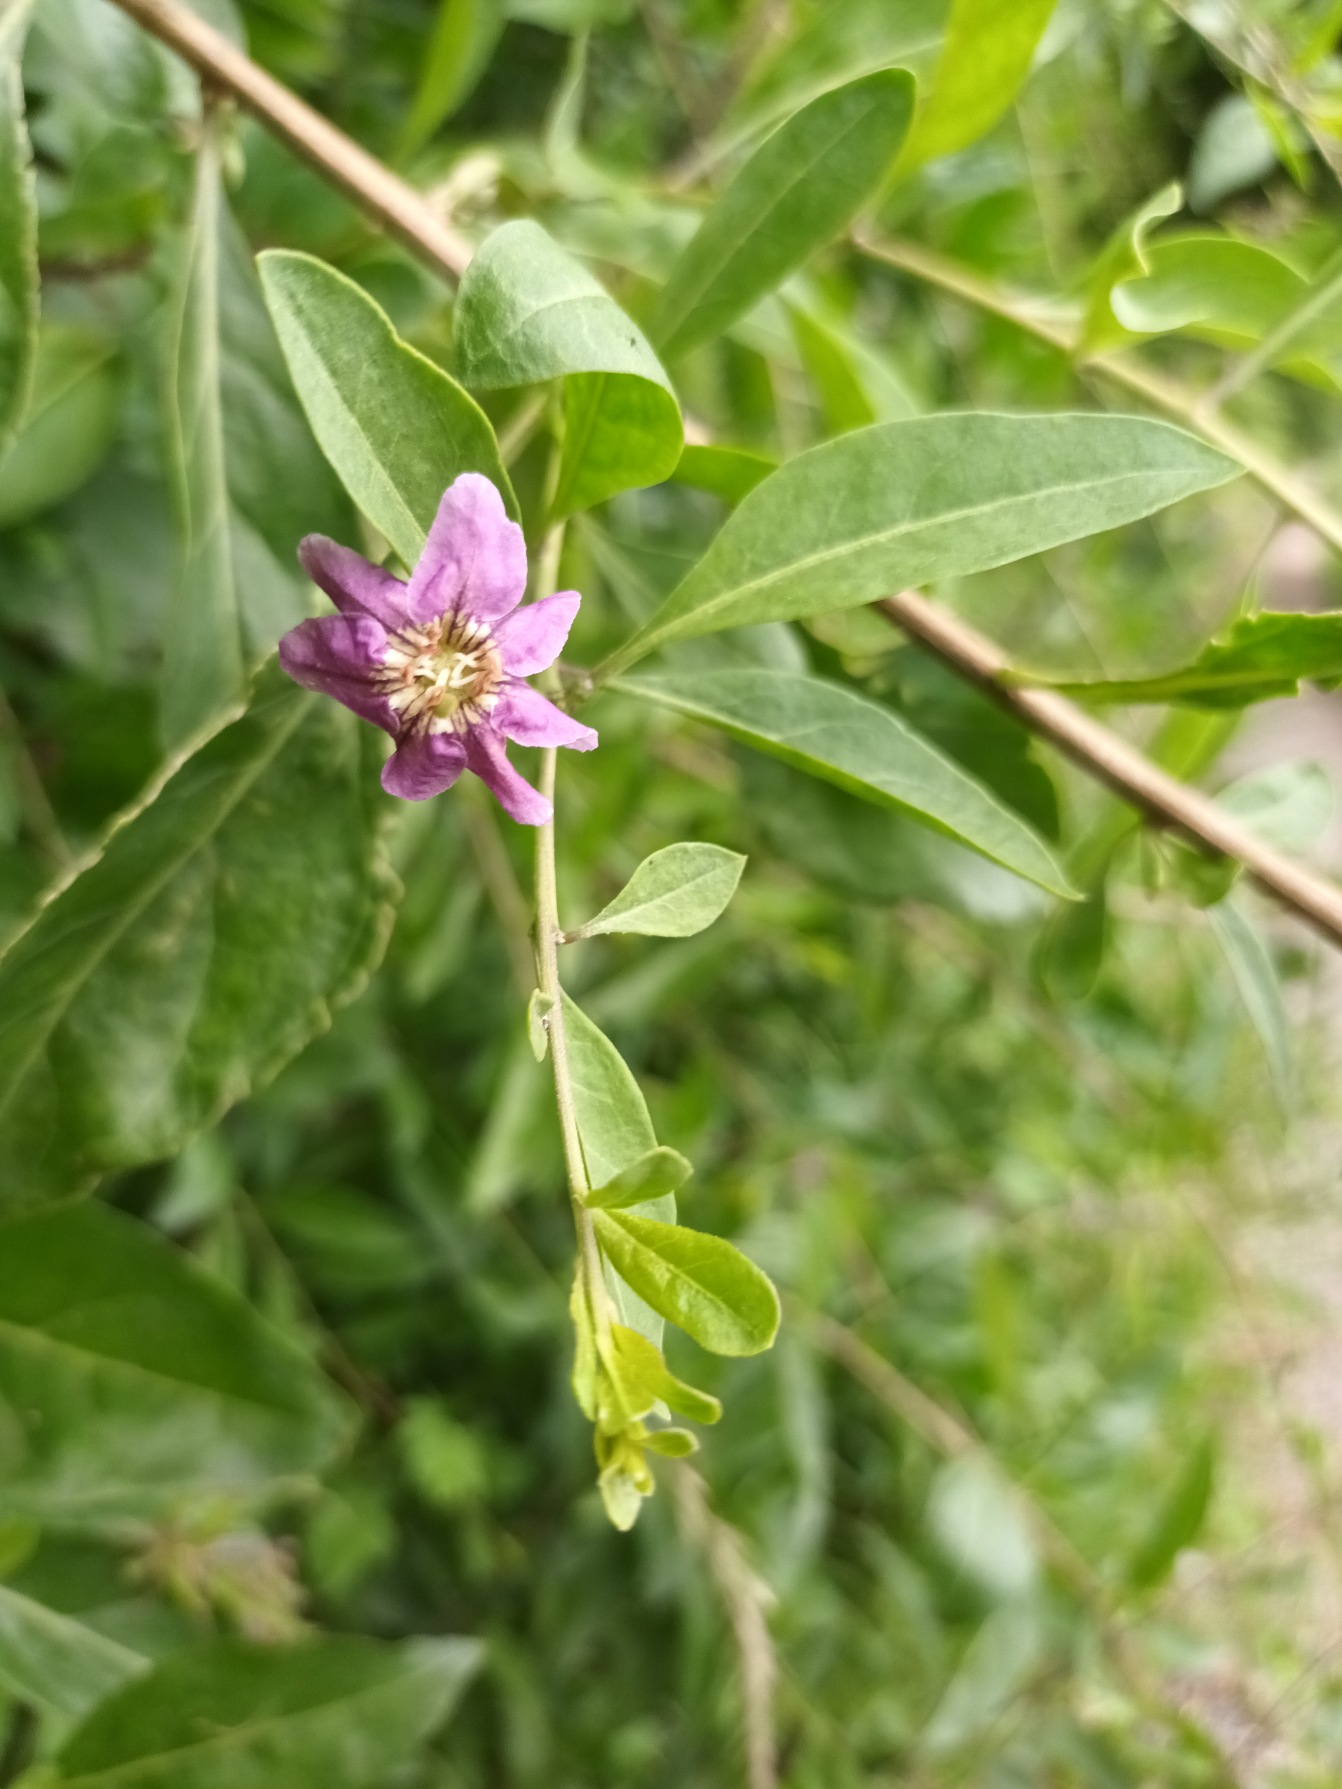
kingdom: Plantae
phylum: Tracheophyta
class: Magnoliopsida
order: Solanales
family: Solanaceae
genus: Lycium
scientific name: Lycium chinense
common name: Bredbladet bukketorn
